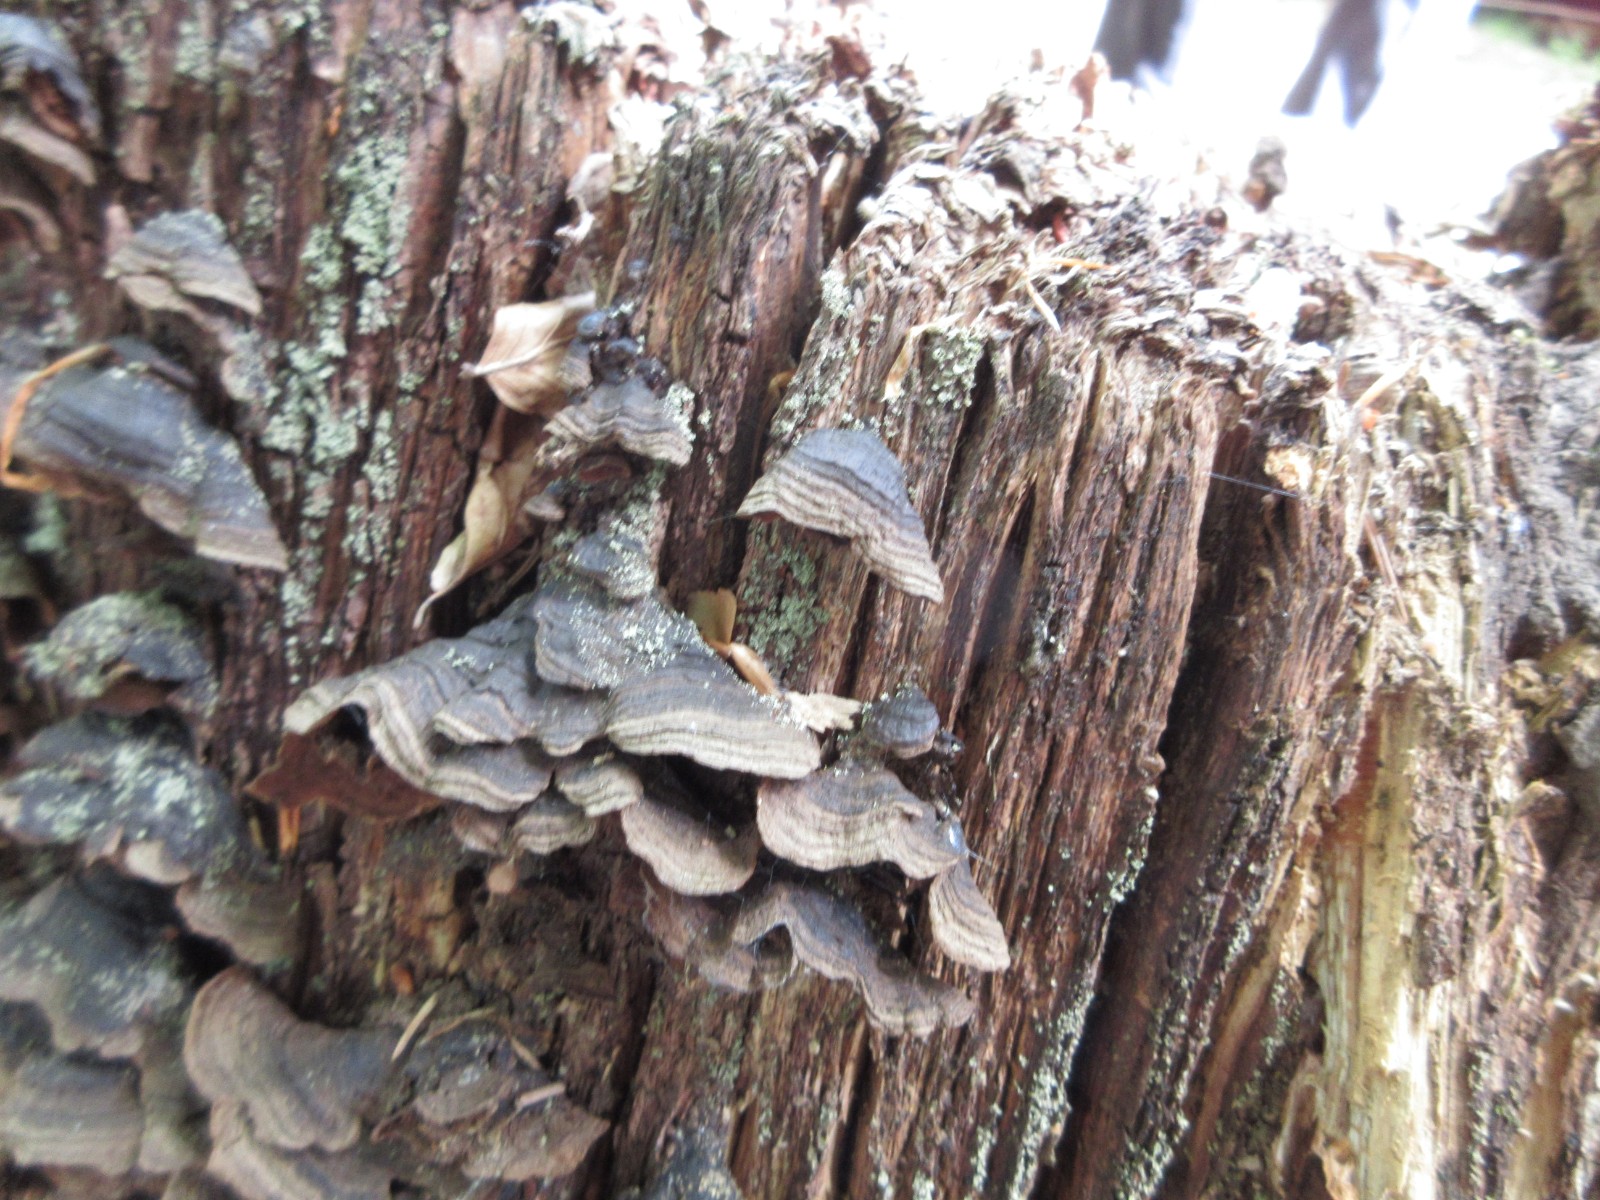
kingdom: Fungi
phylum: Basidiomycota
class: Agaricomycetes
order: Hymenochaetales
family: Hymenochaetaceae
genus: Hymenochaete
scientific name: Hymenochaete rubiginosa
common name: stiv ruslædersvamp
